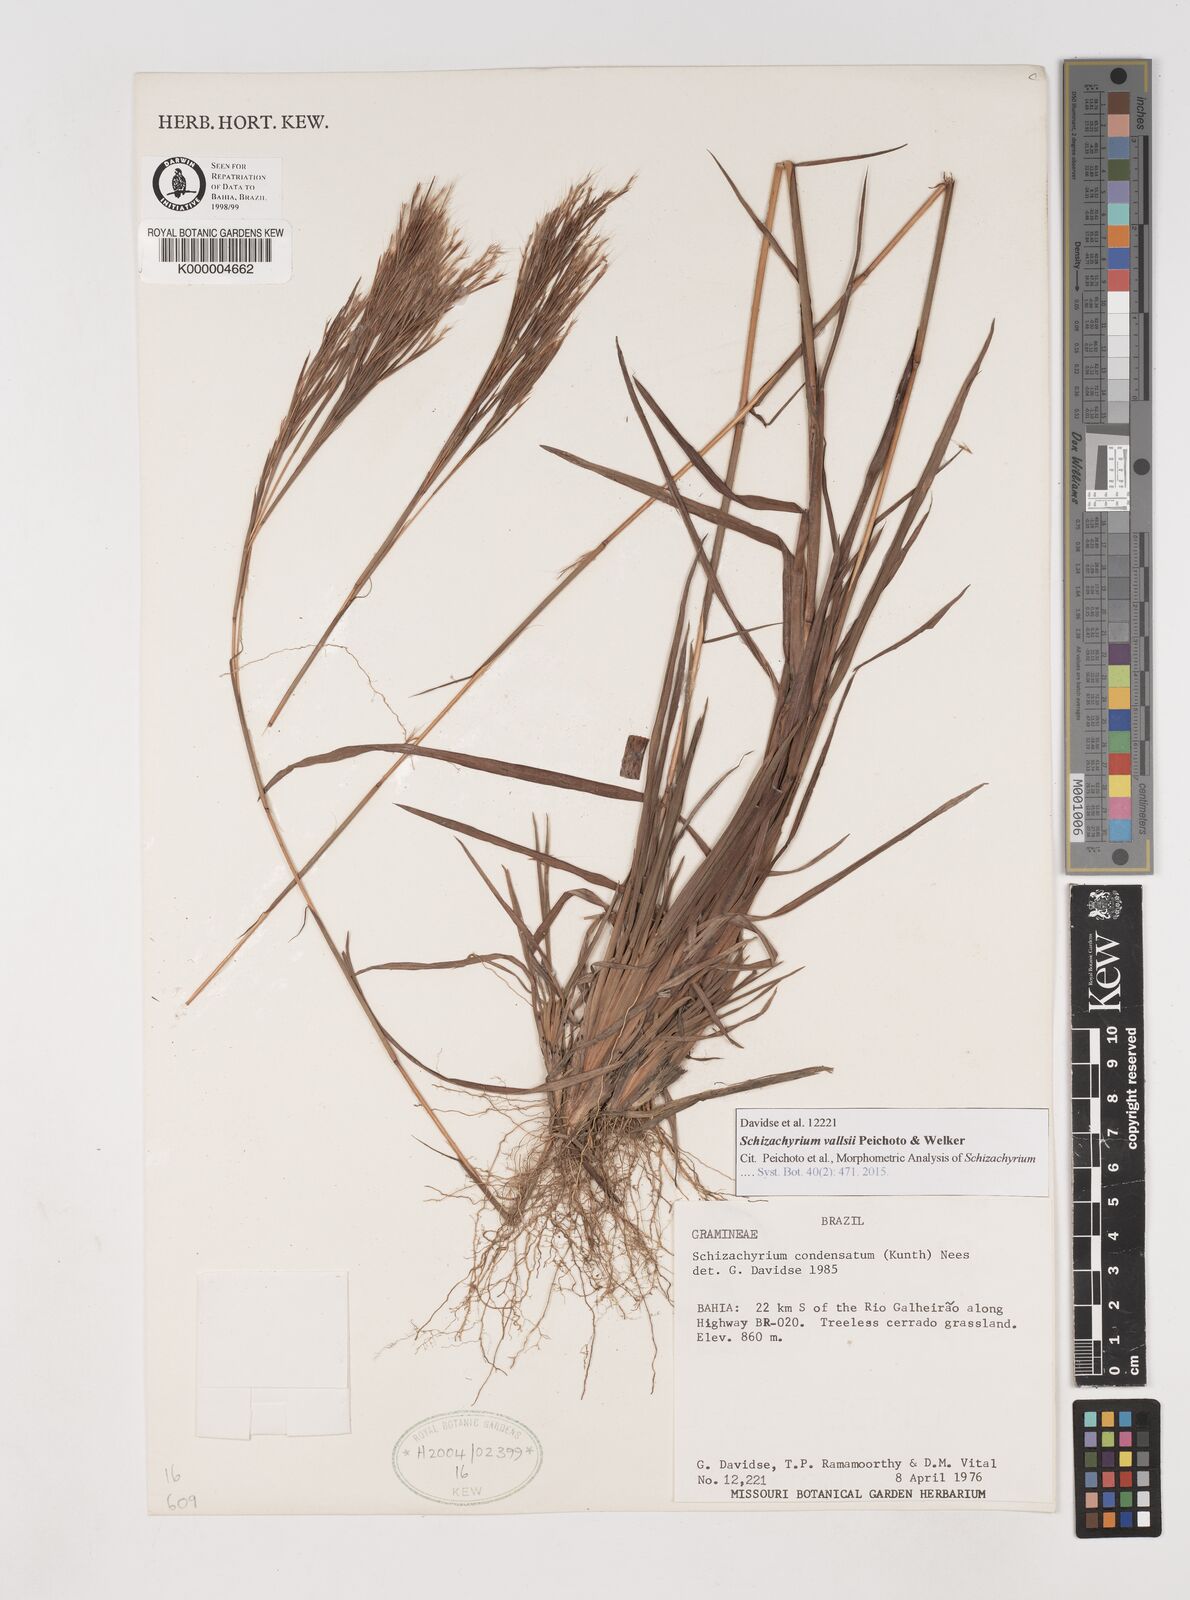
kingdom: Plantae
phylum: Tracheophyta
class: Liliopsida
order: Poales
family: Poaceae
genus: Schizachyrium
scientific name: Schizachyrium condensatum
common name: Bush beardgrass
